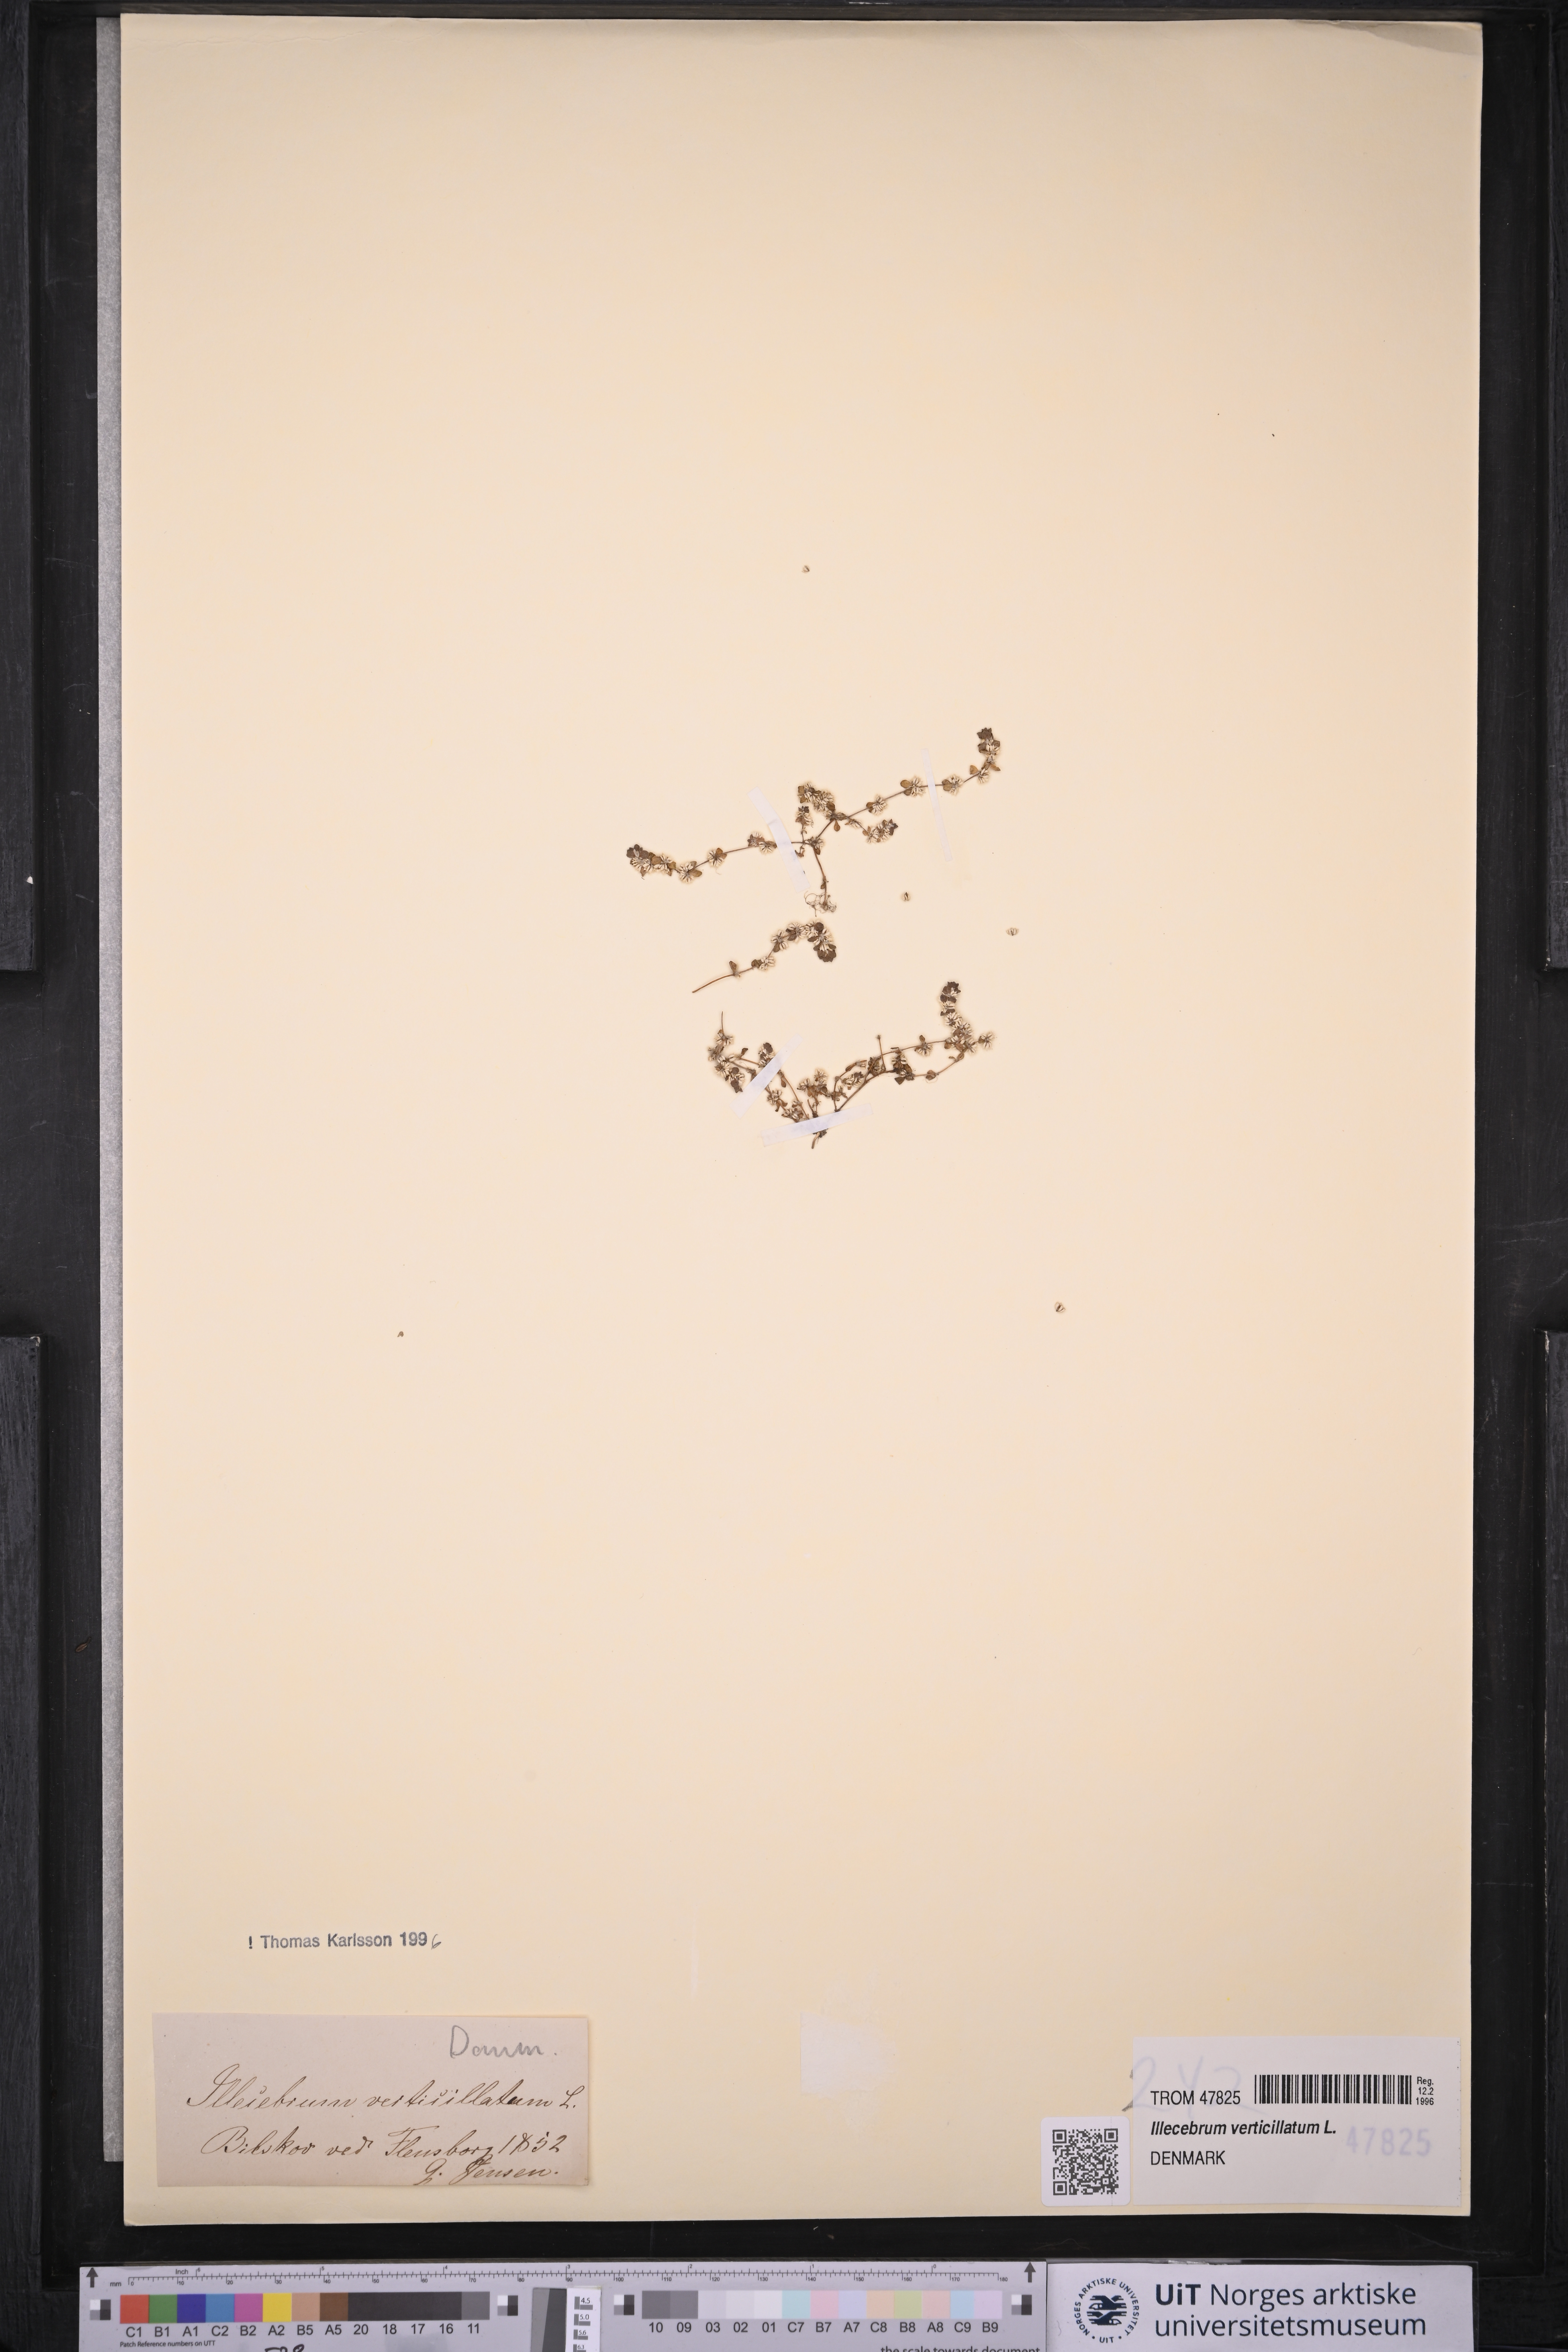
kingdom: Plantae
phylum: Tracheophyta
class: Magnoliopsida
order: Caryophyllales
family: Caryophyllaceae
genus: Illecebrum
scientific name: Illecebrum verticillatum
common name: Coral necklace
